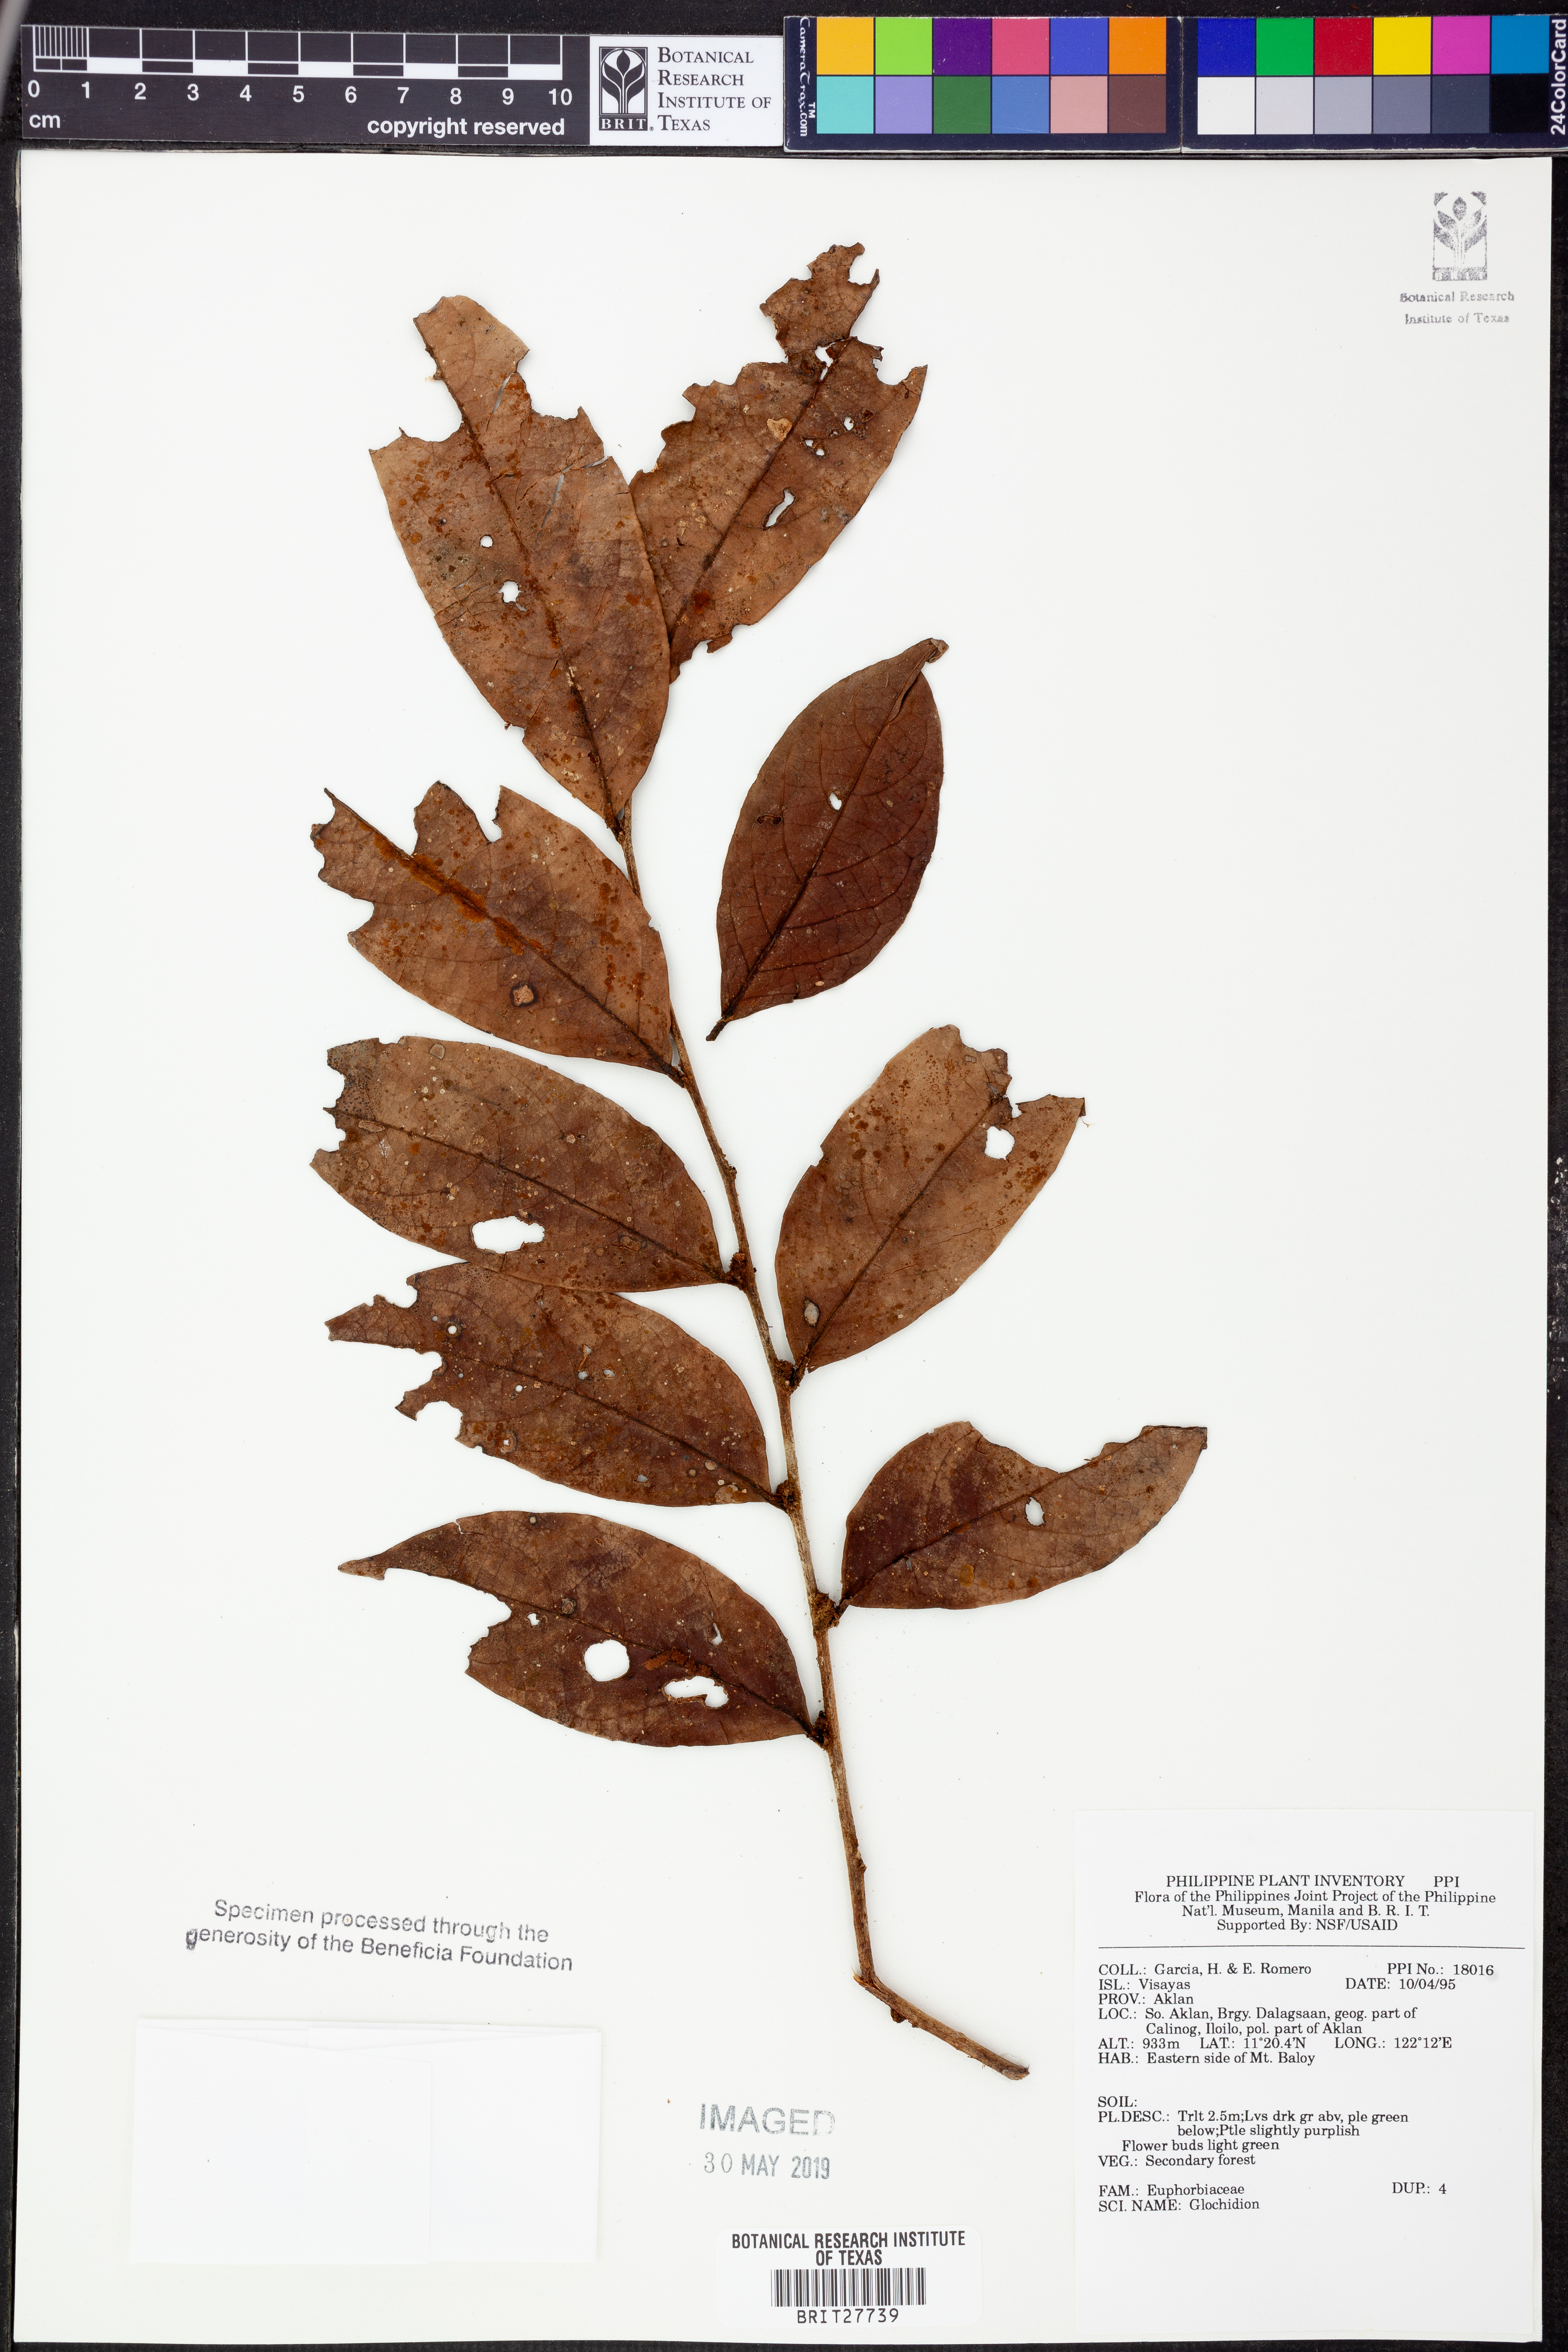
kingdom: Plantae
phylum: Tracheophyta
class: Magnoliopsida
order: Malpighiales
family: Phyllanthaceae
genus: Glochidion
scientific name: Glochidion
